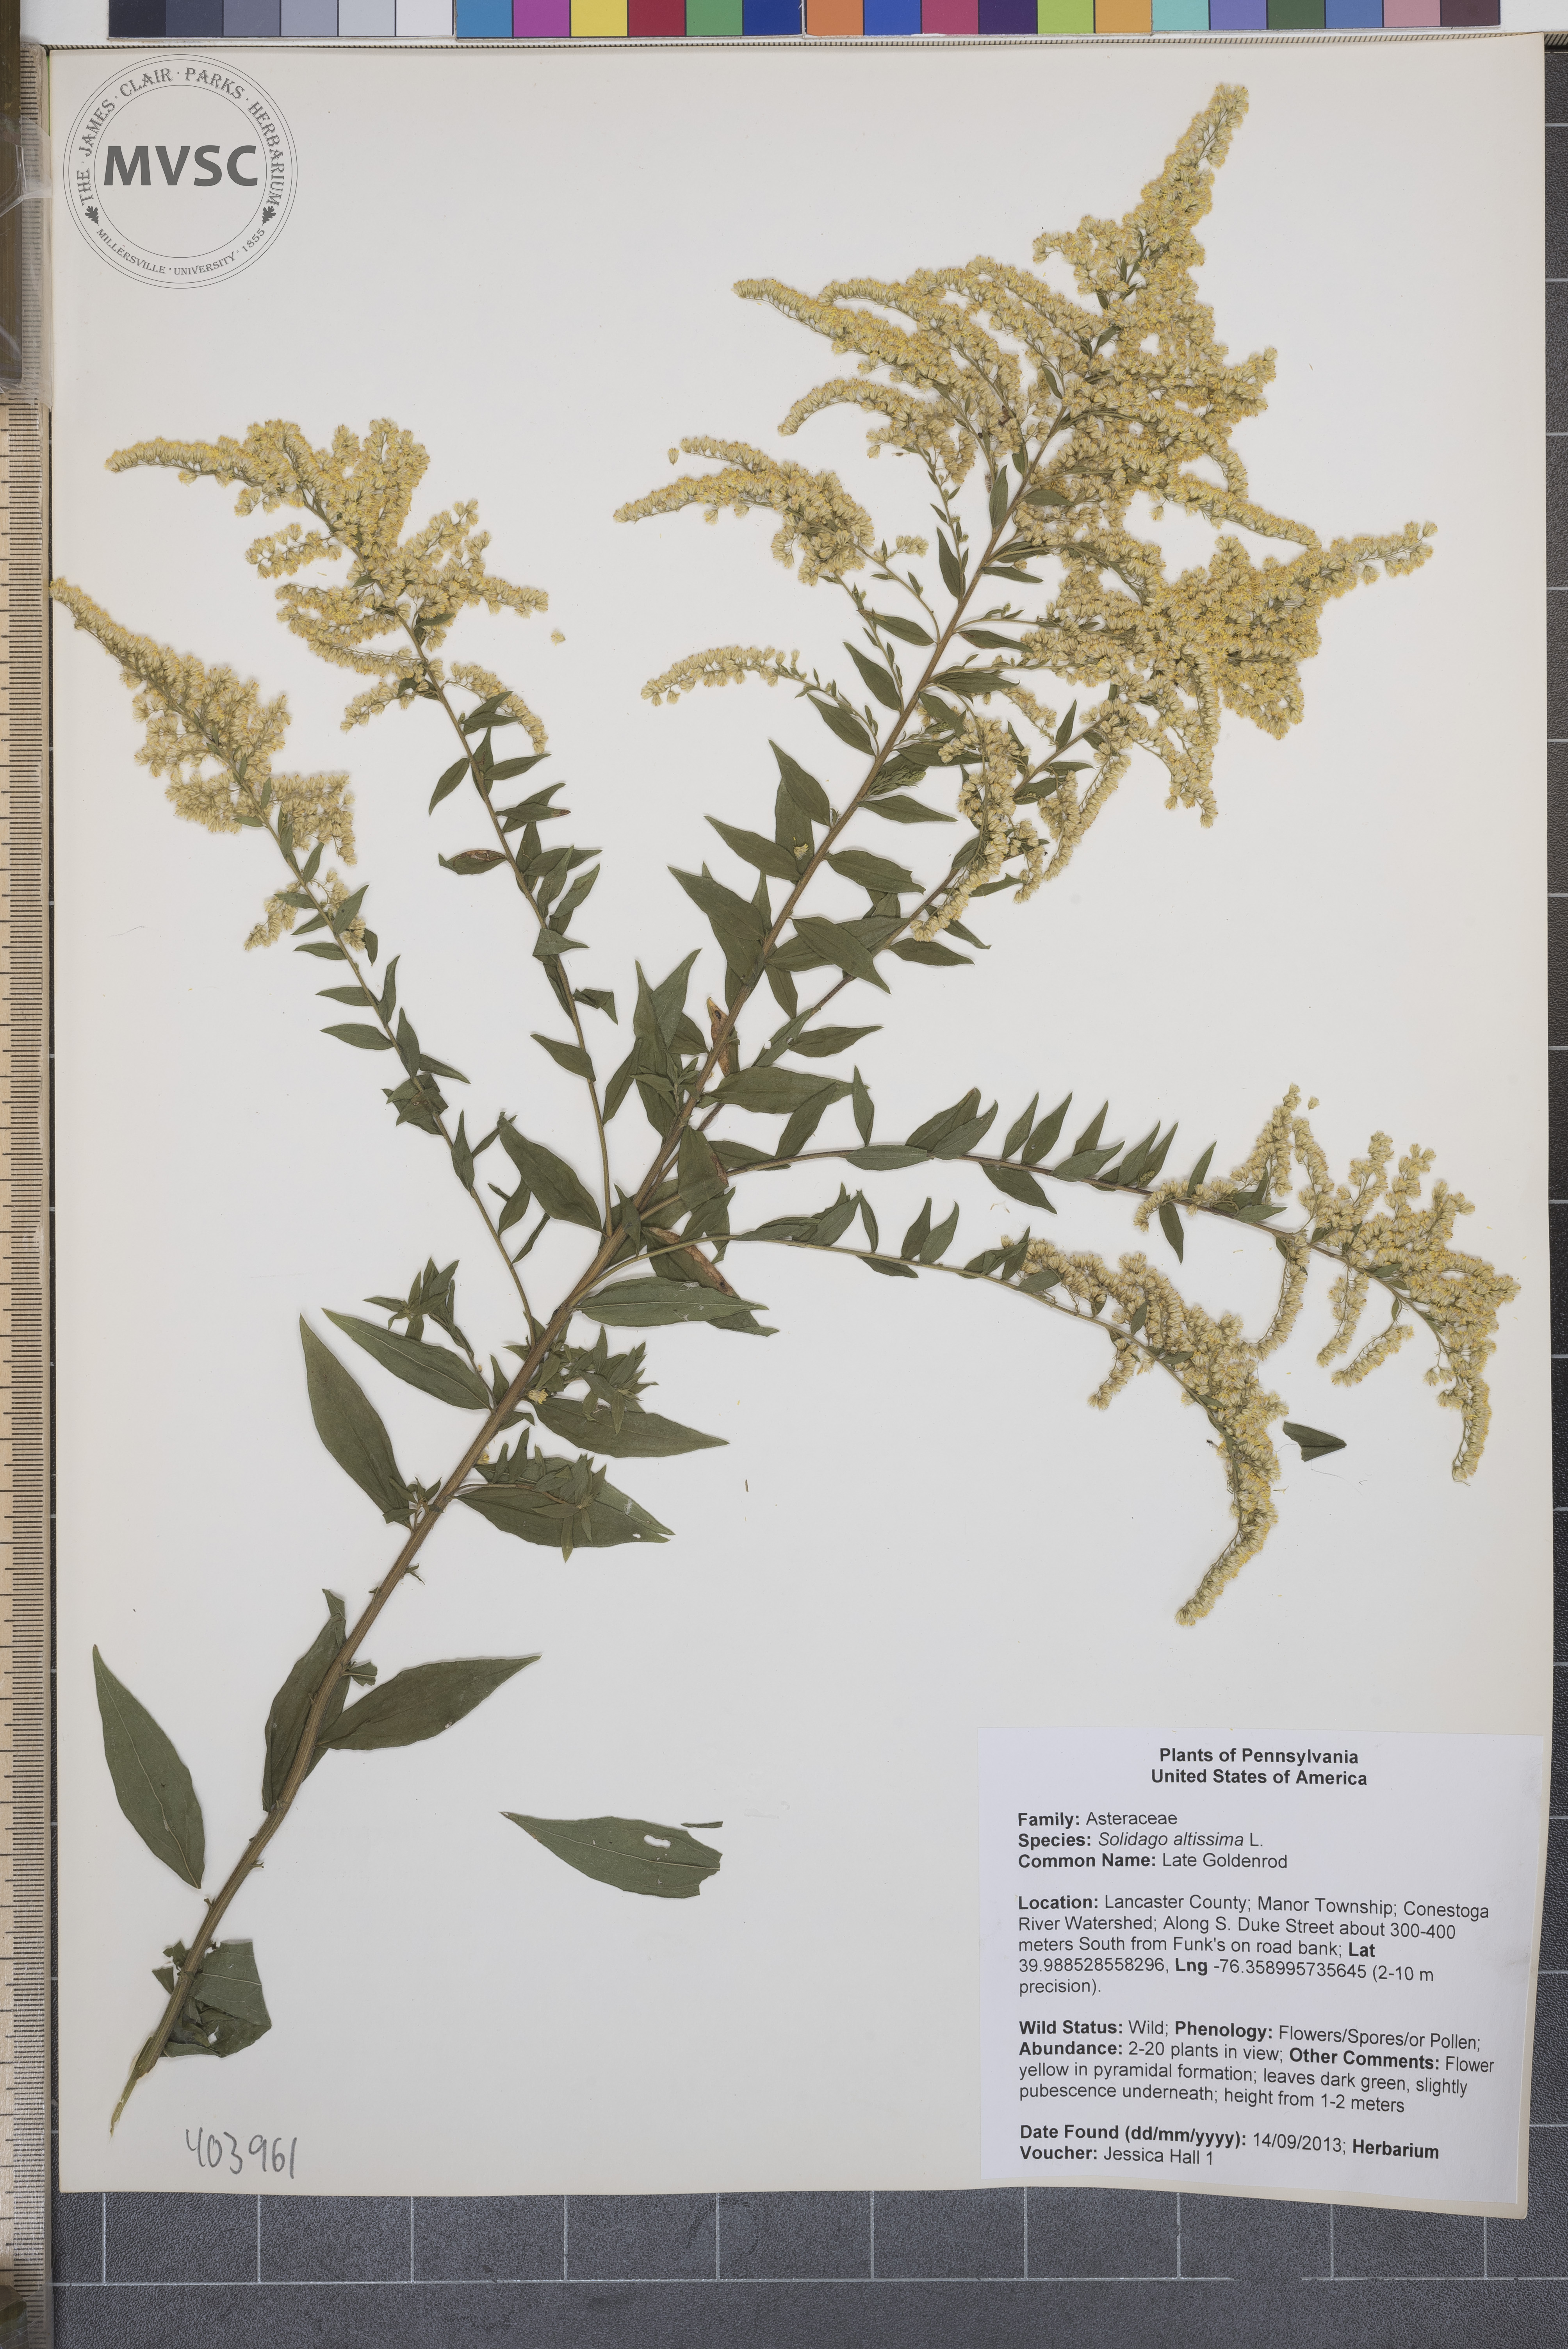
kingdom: Plantae
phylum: Tracheophyta
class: Magnoliopsida
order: Asterales
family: Asteraceae
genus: Solidago
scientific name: Solidago altissima
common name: Late Goldenrod
